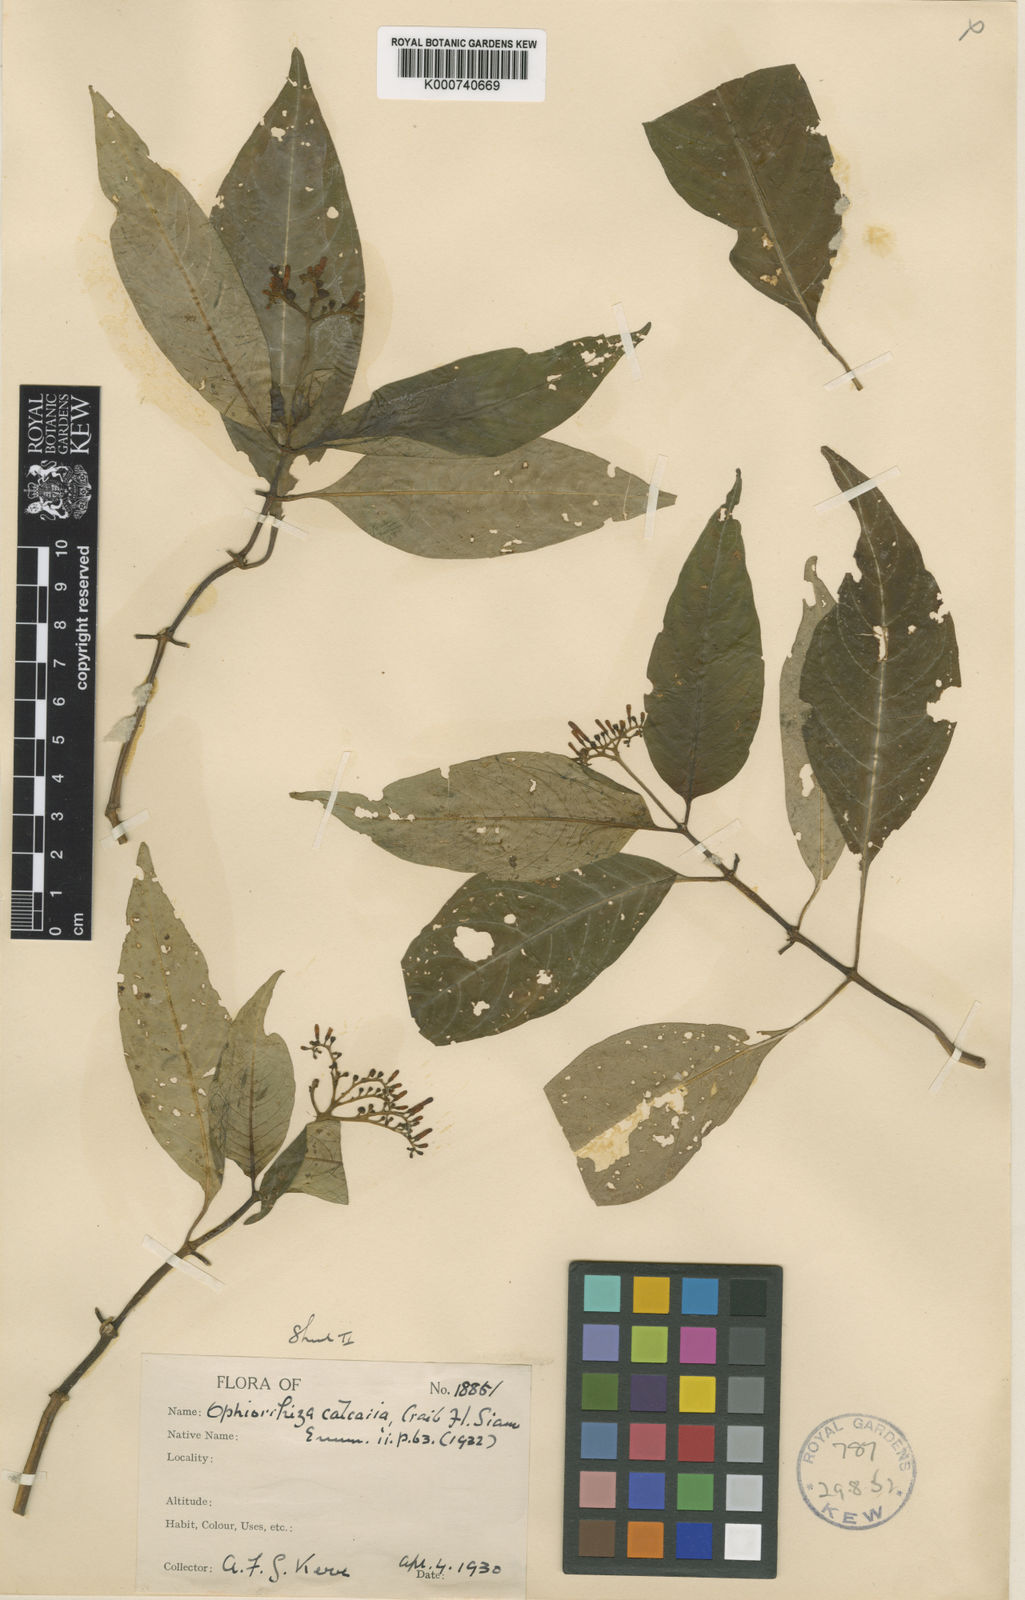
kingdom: Plantae
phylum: Tracheophyta
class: Magnoliopsida
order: Gentianales
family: Rubiaceae
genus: Ophiorrhiza
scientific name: Ophiorrhiza discolor
